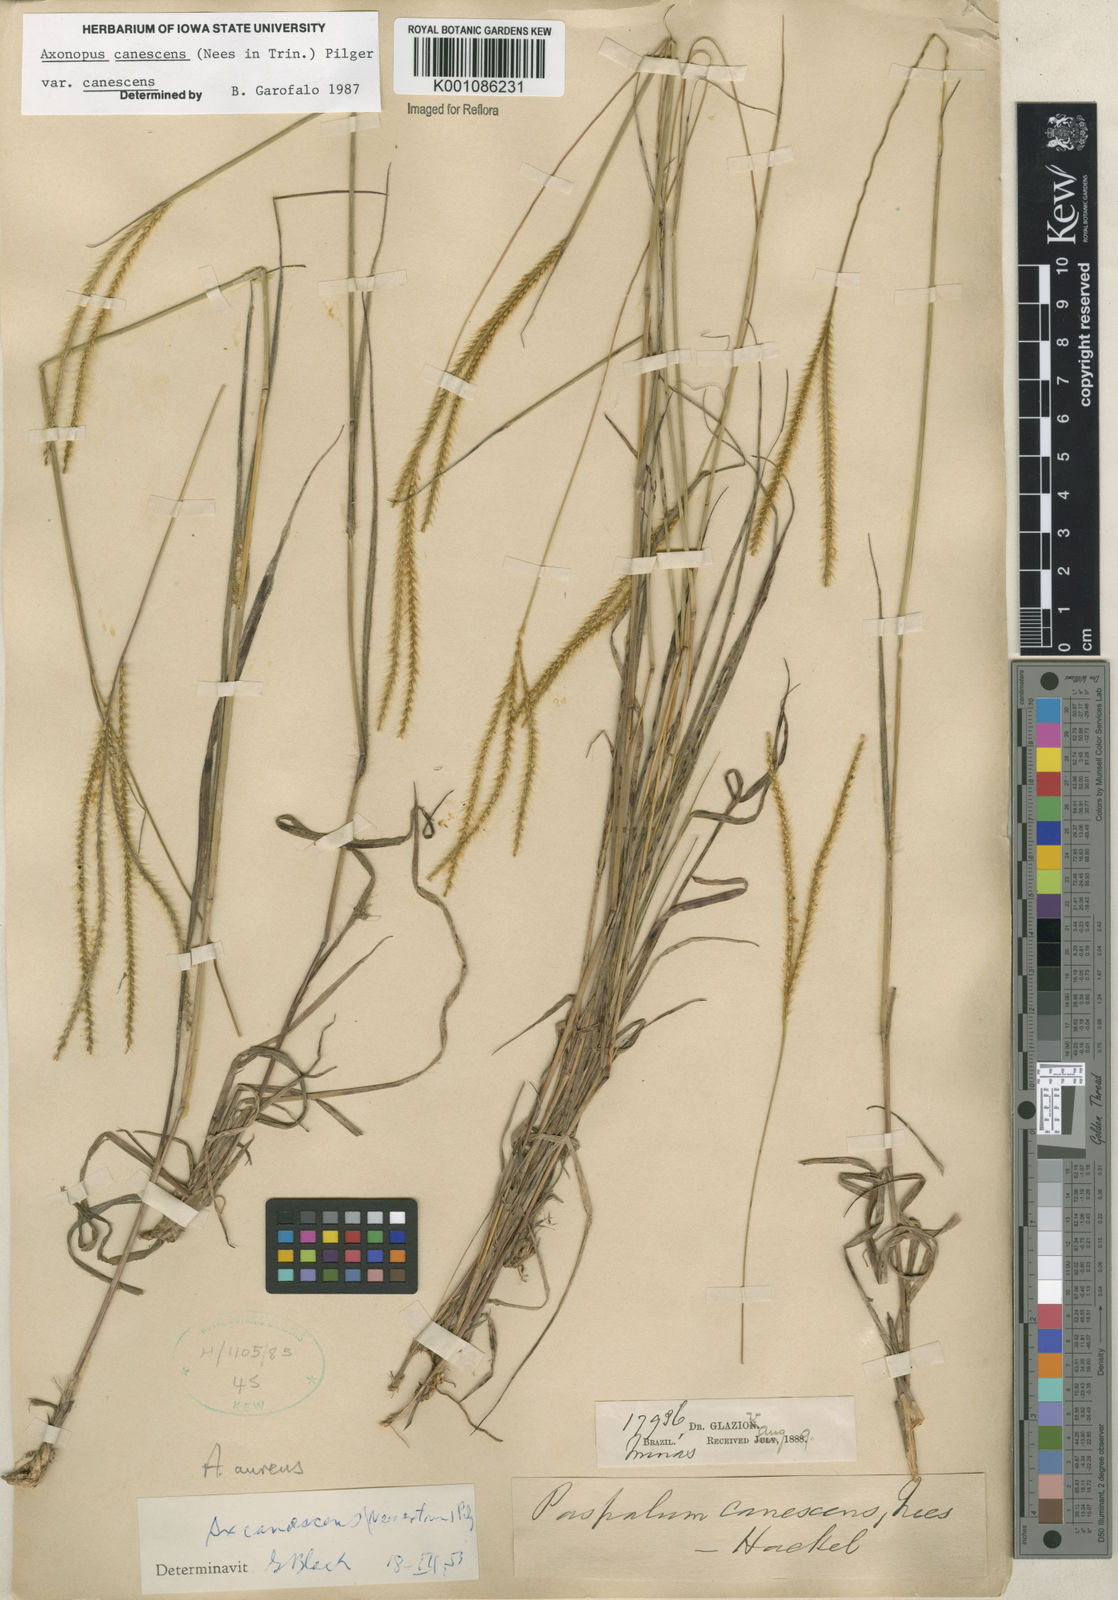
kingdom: Plantae
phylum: Tracheophyta
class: Liliopsida
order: Poales
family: Poaceae
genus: Axonopus
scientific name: Axonopus aureus
